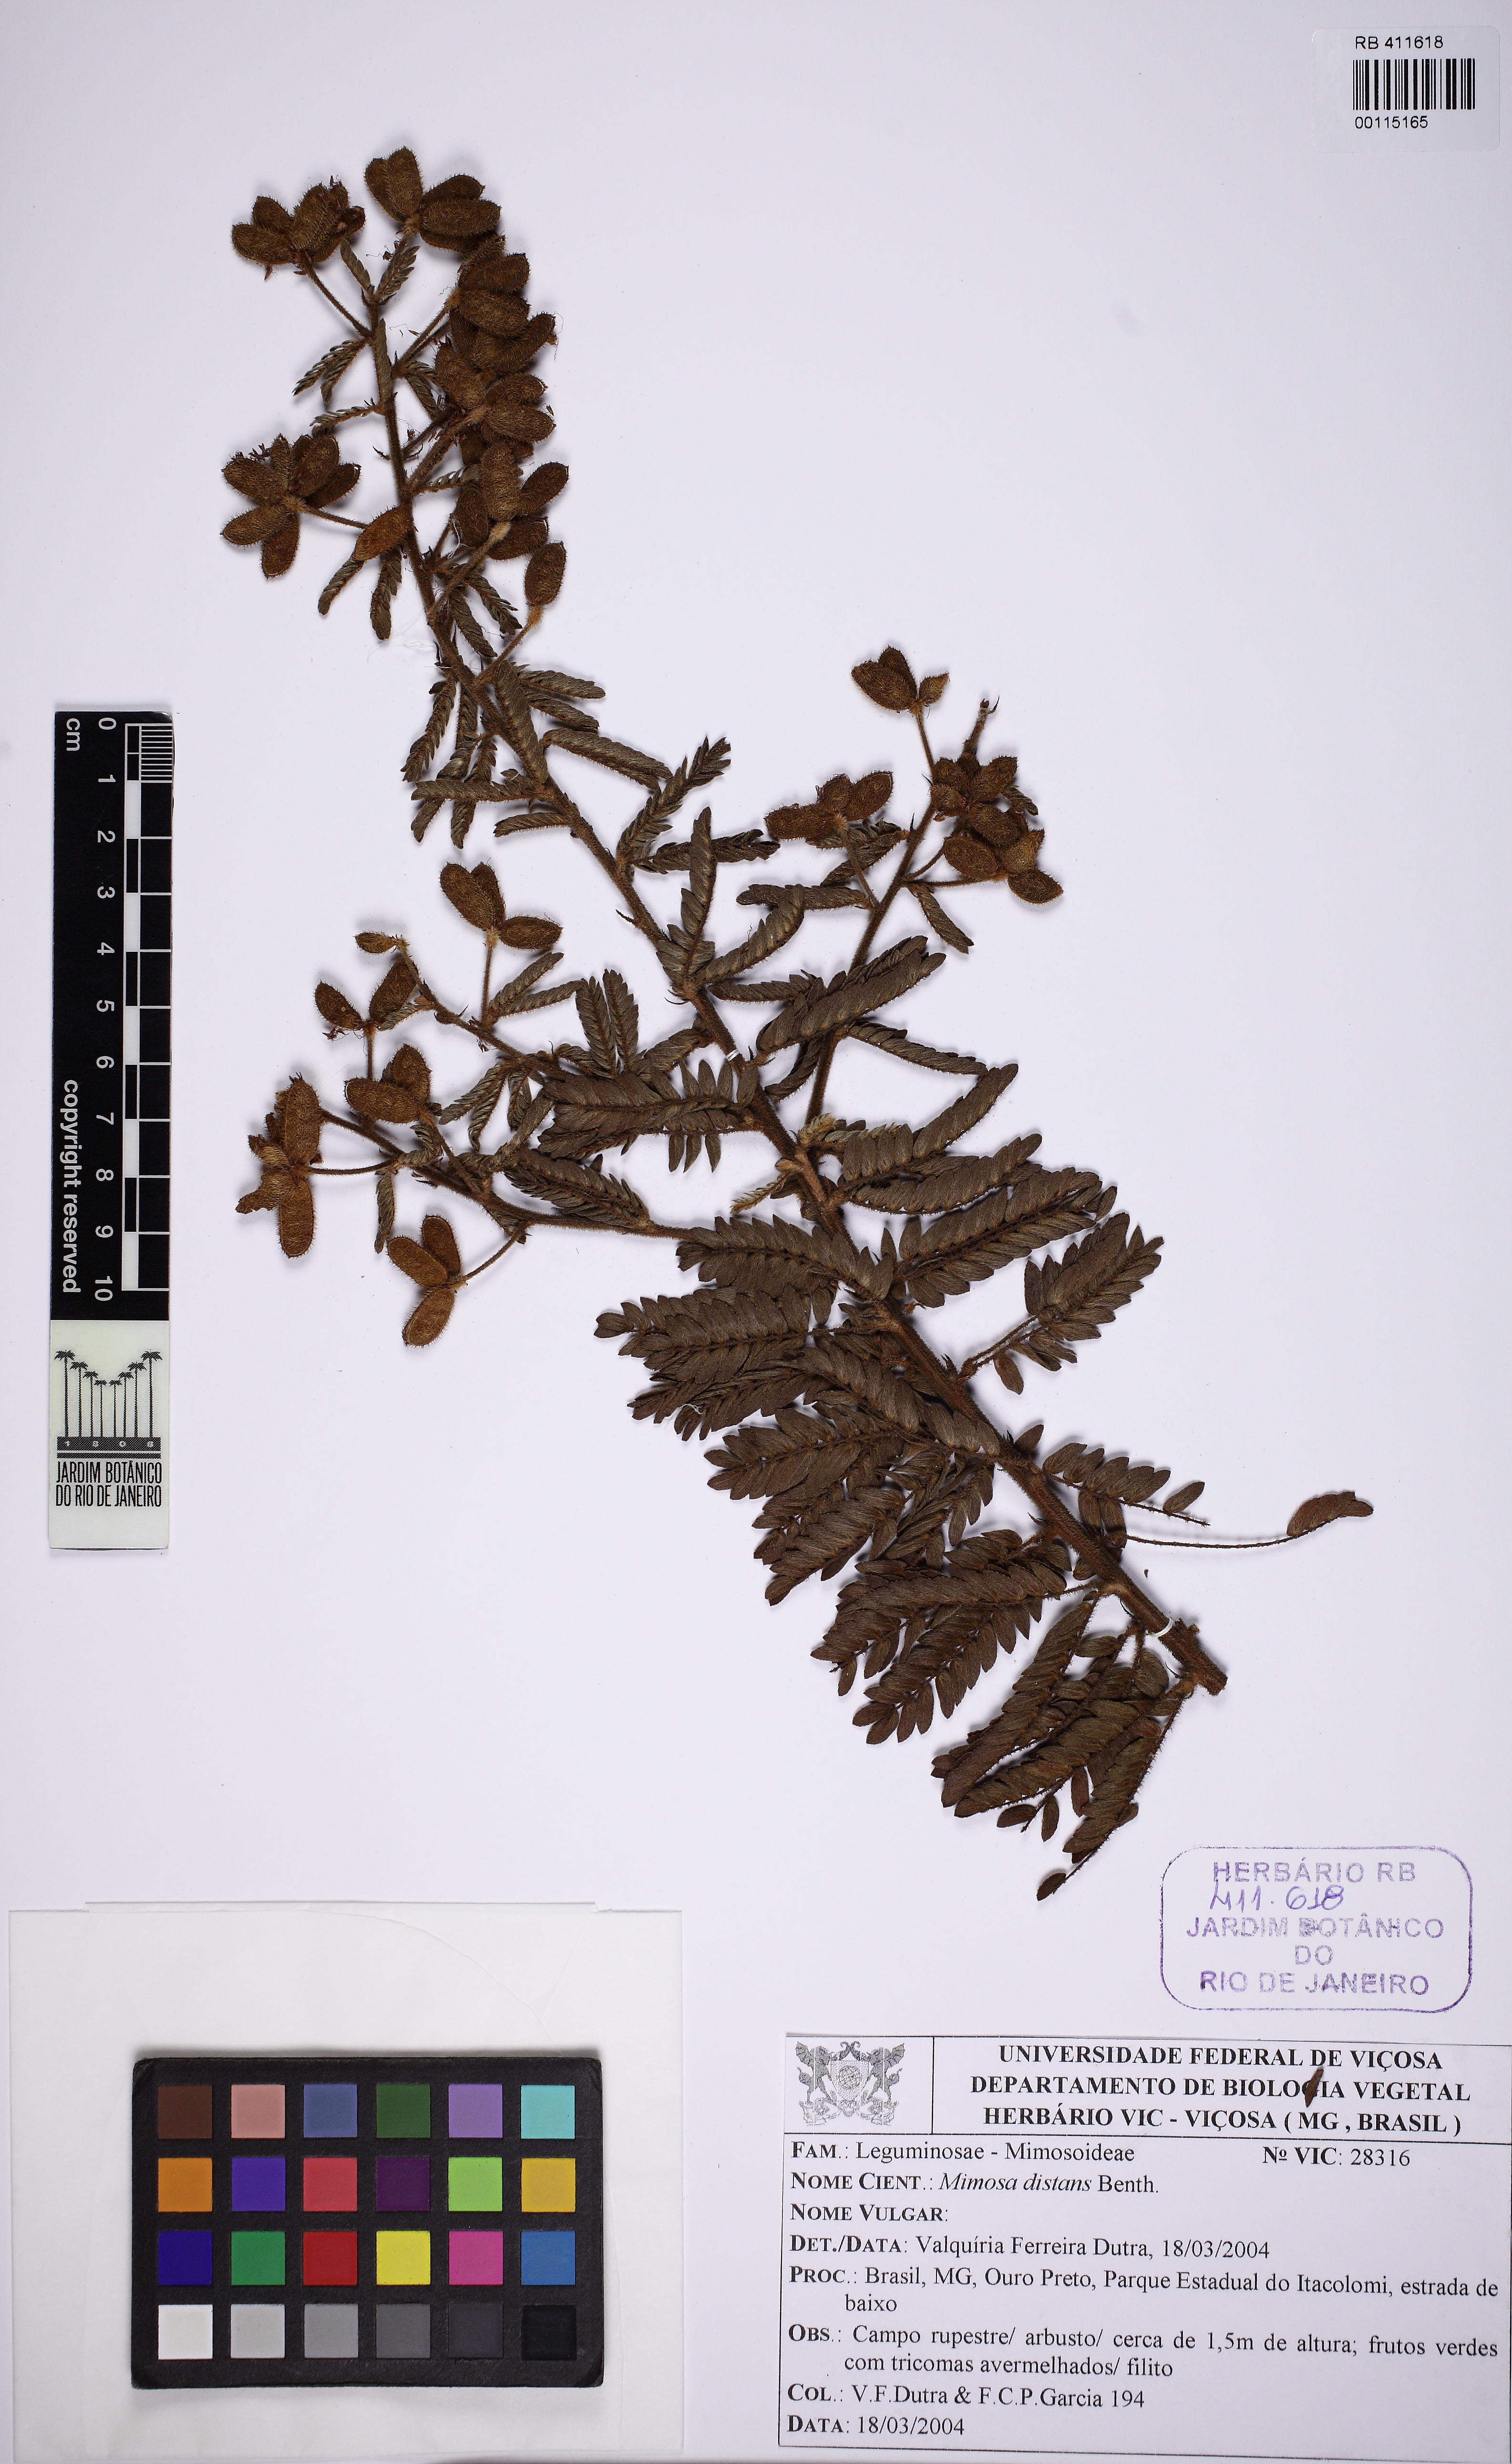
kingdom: Plantae
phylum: Tracheophyta
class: Magnoliopsida
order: Fabales
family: Fabaceae
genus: Mimosa
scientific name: Mimosa montis-carasae
